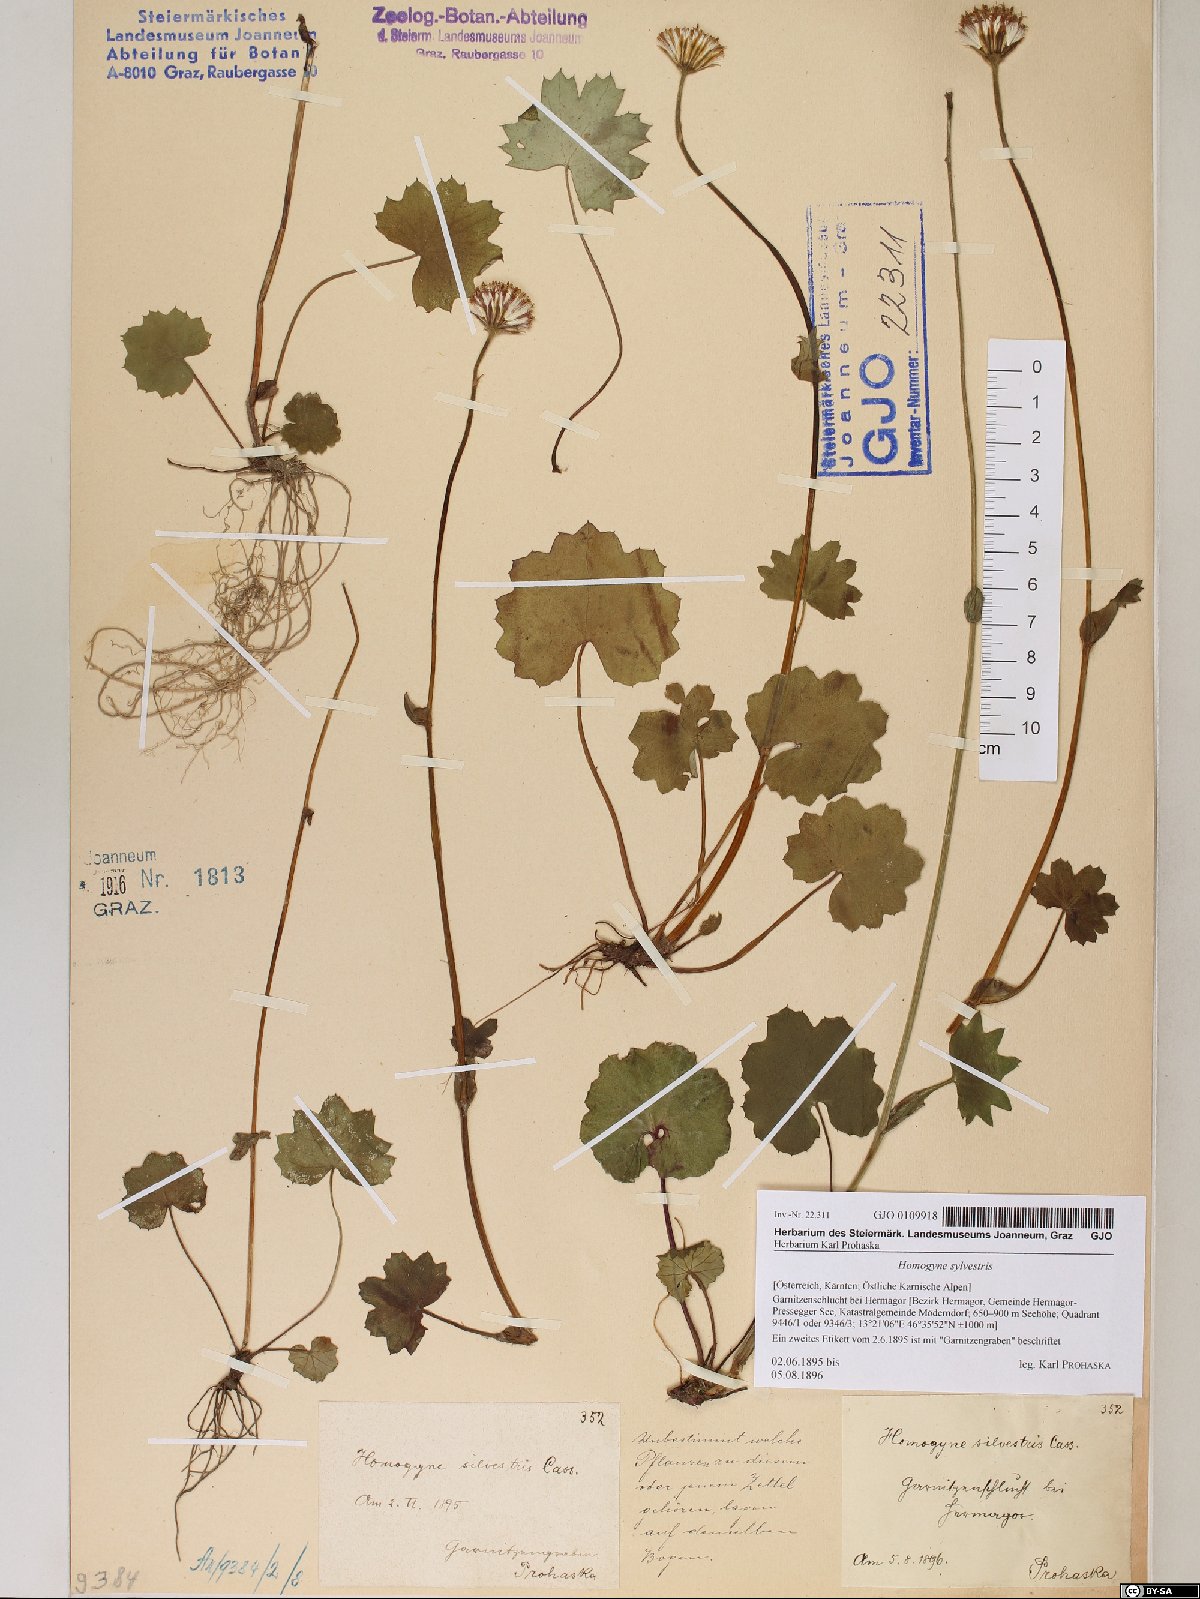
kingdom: Plantae
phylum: Tracheophyta
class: Magnoliopsida
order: Asterales
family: Asteraceae
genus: Homogyne
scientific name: Homogyne sylvestris
